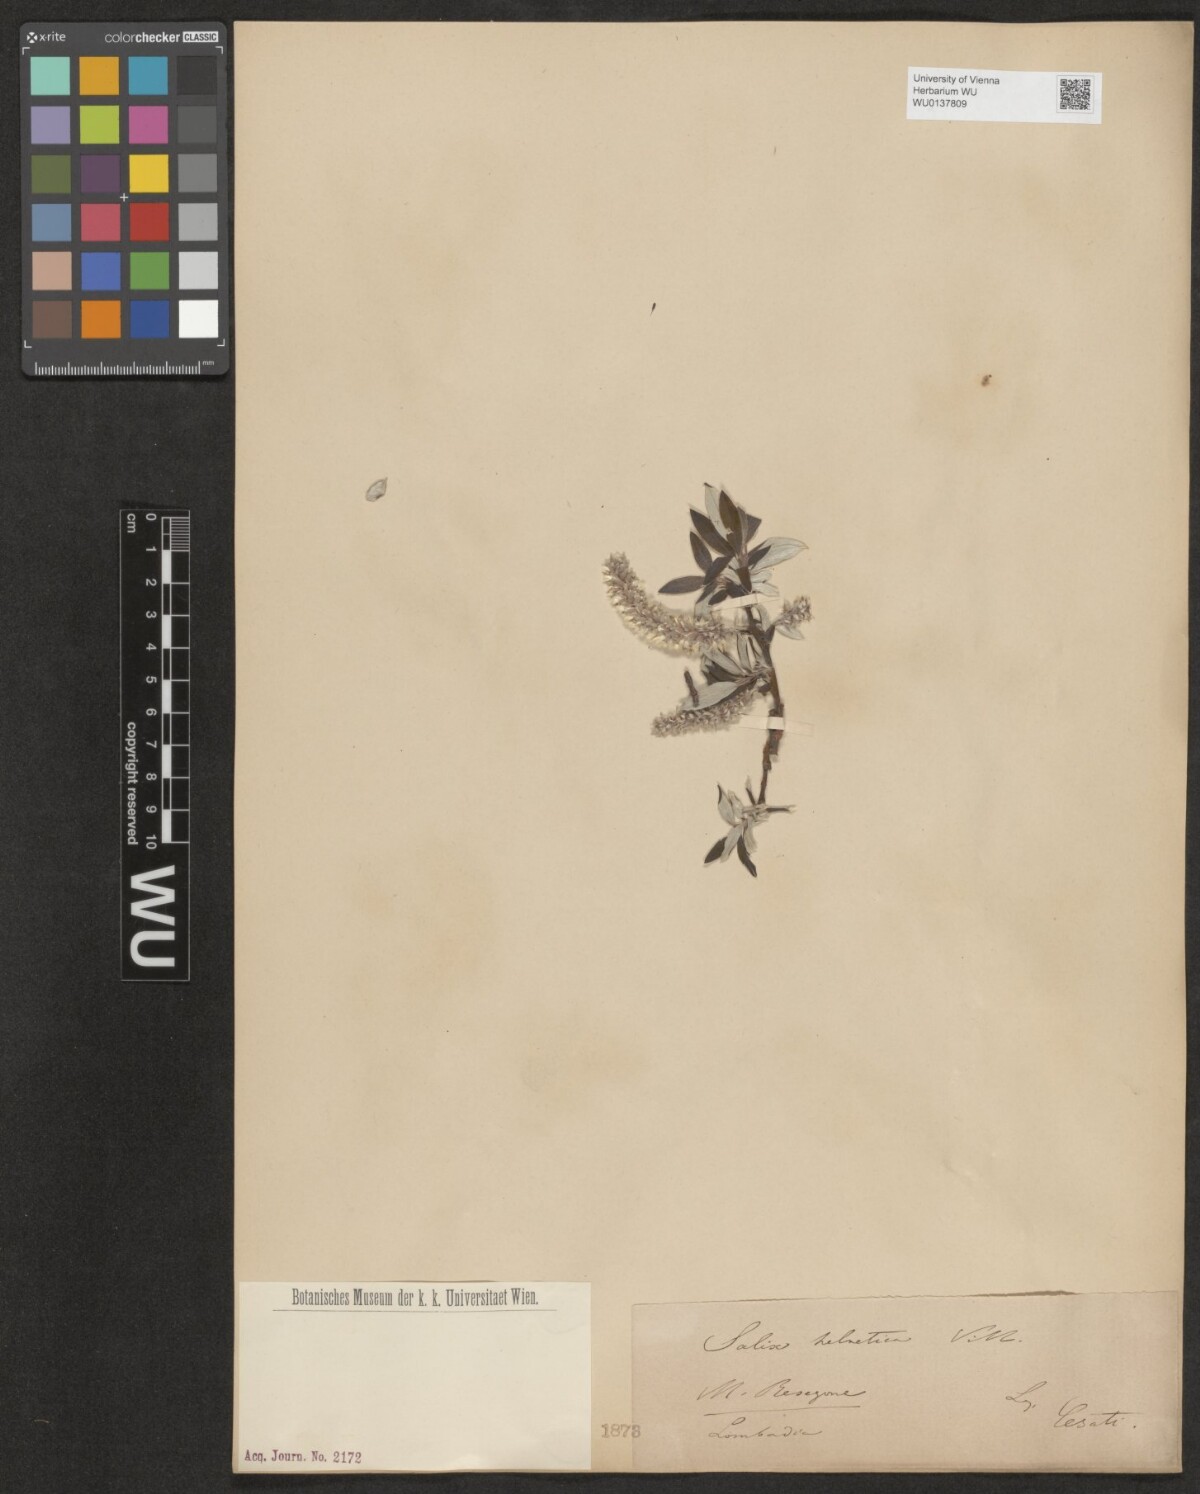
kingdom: Plantae
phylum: Tracheophyta
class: Magnoliopsida
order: Malpighiales
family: Salicaceae
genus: Salix
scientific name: Salix helvetica
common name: Swiss willow
